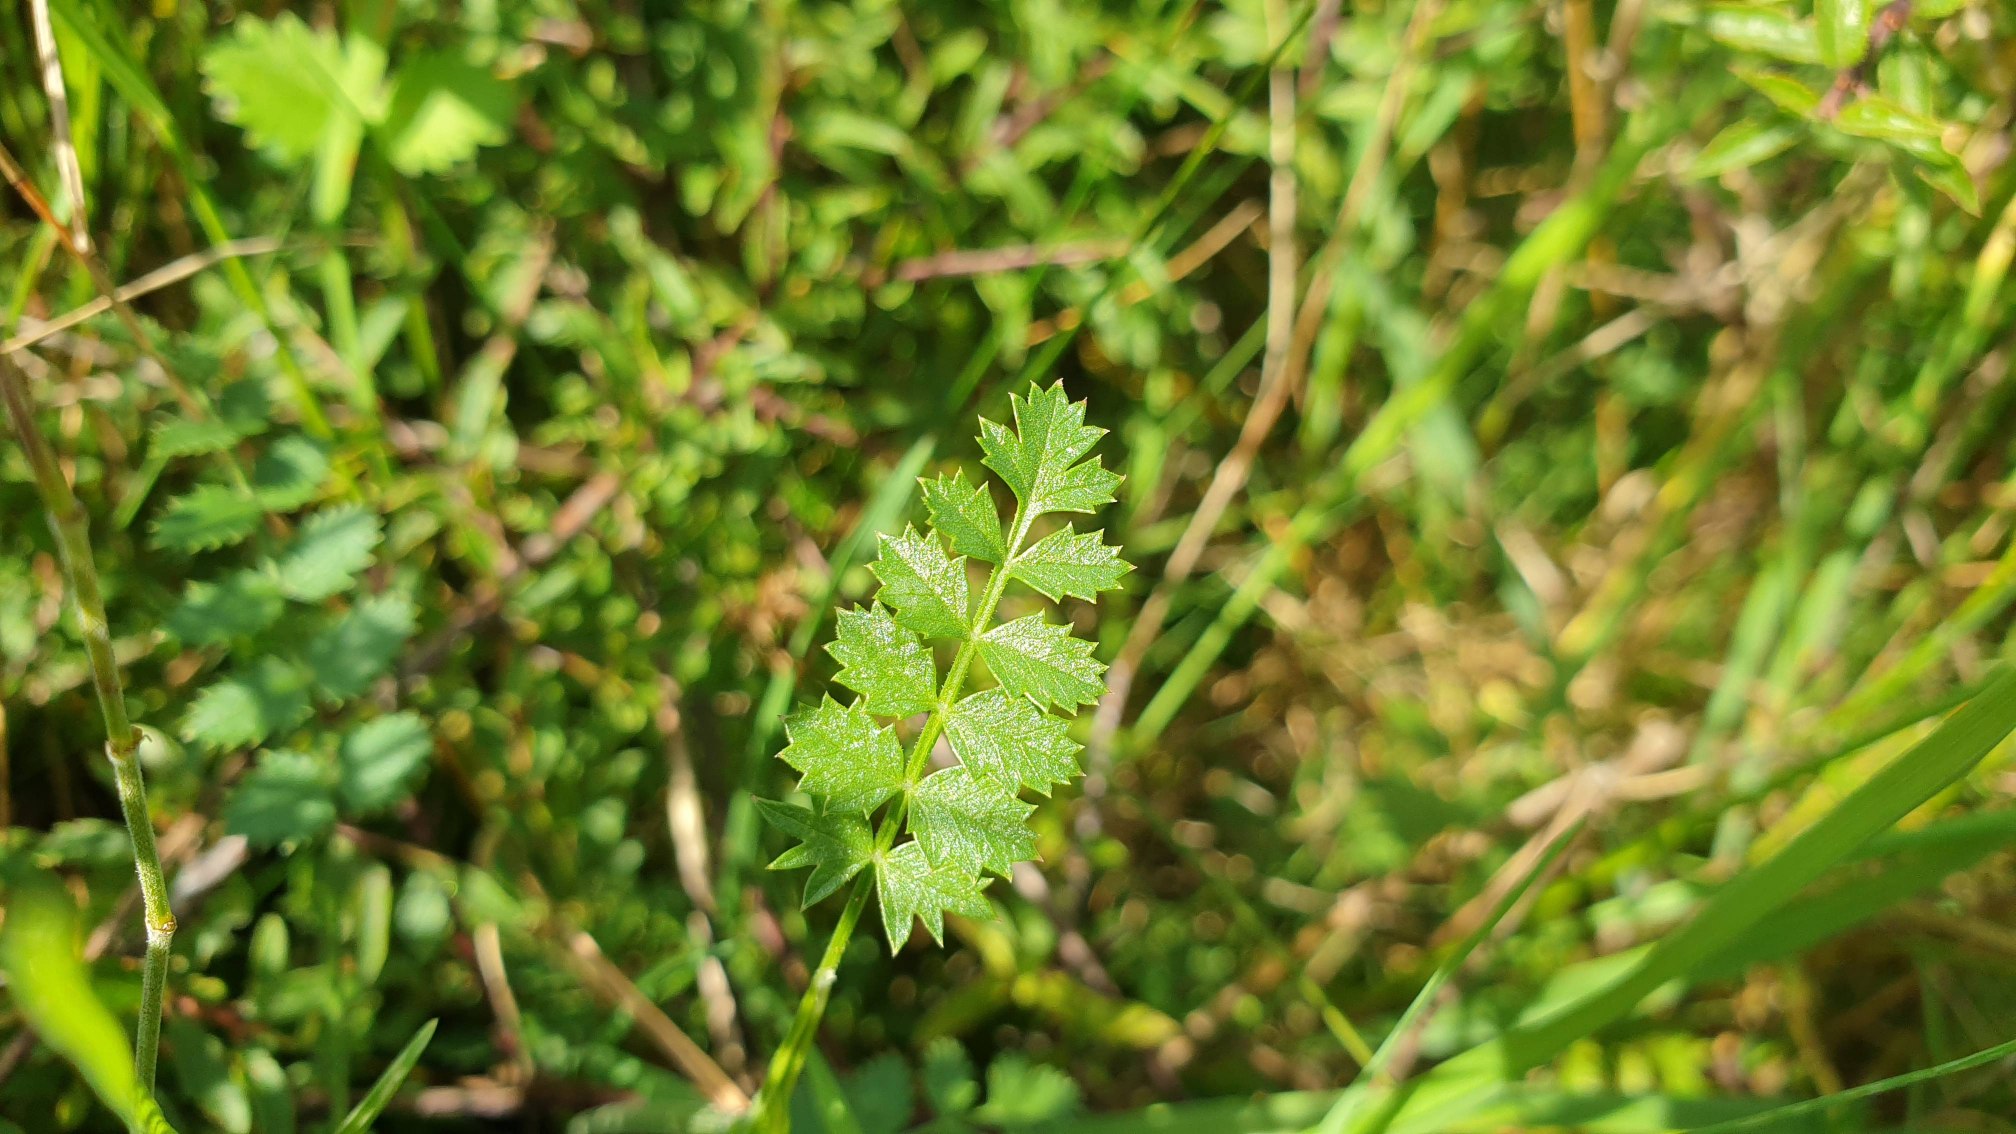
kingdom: Plantae
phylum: Tracheophyta
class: Magnoliopsida
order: Apiales
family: Apiaceae
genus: Pimpinella
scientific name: Pimpinella saxifraga
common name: Almindelig pimpinelle
